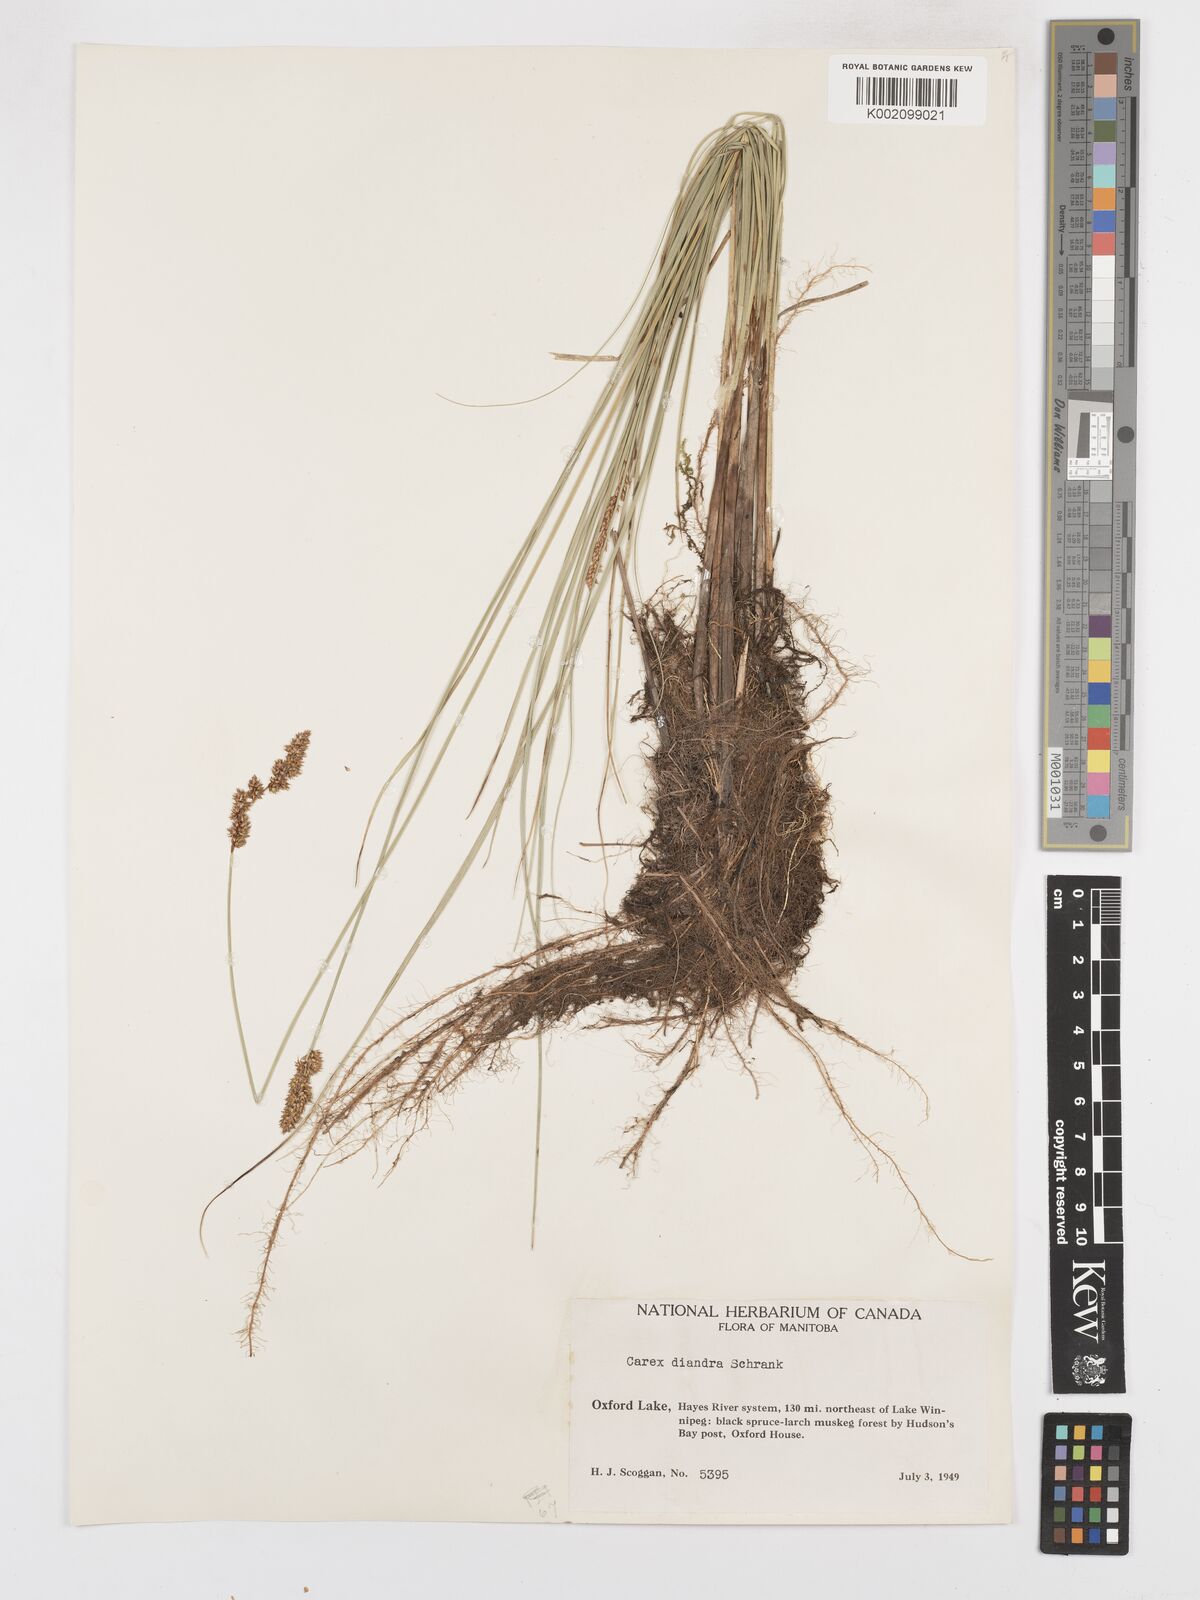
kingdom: Plantae
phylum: Tracheophyta
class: Liliopsida
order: Poales
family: Cyperaceae
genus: Carex
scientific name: Carex diandra
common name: Lesser tussock-sedge
